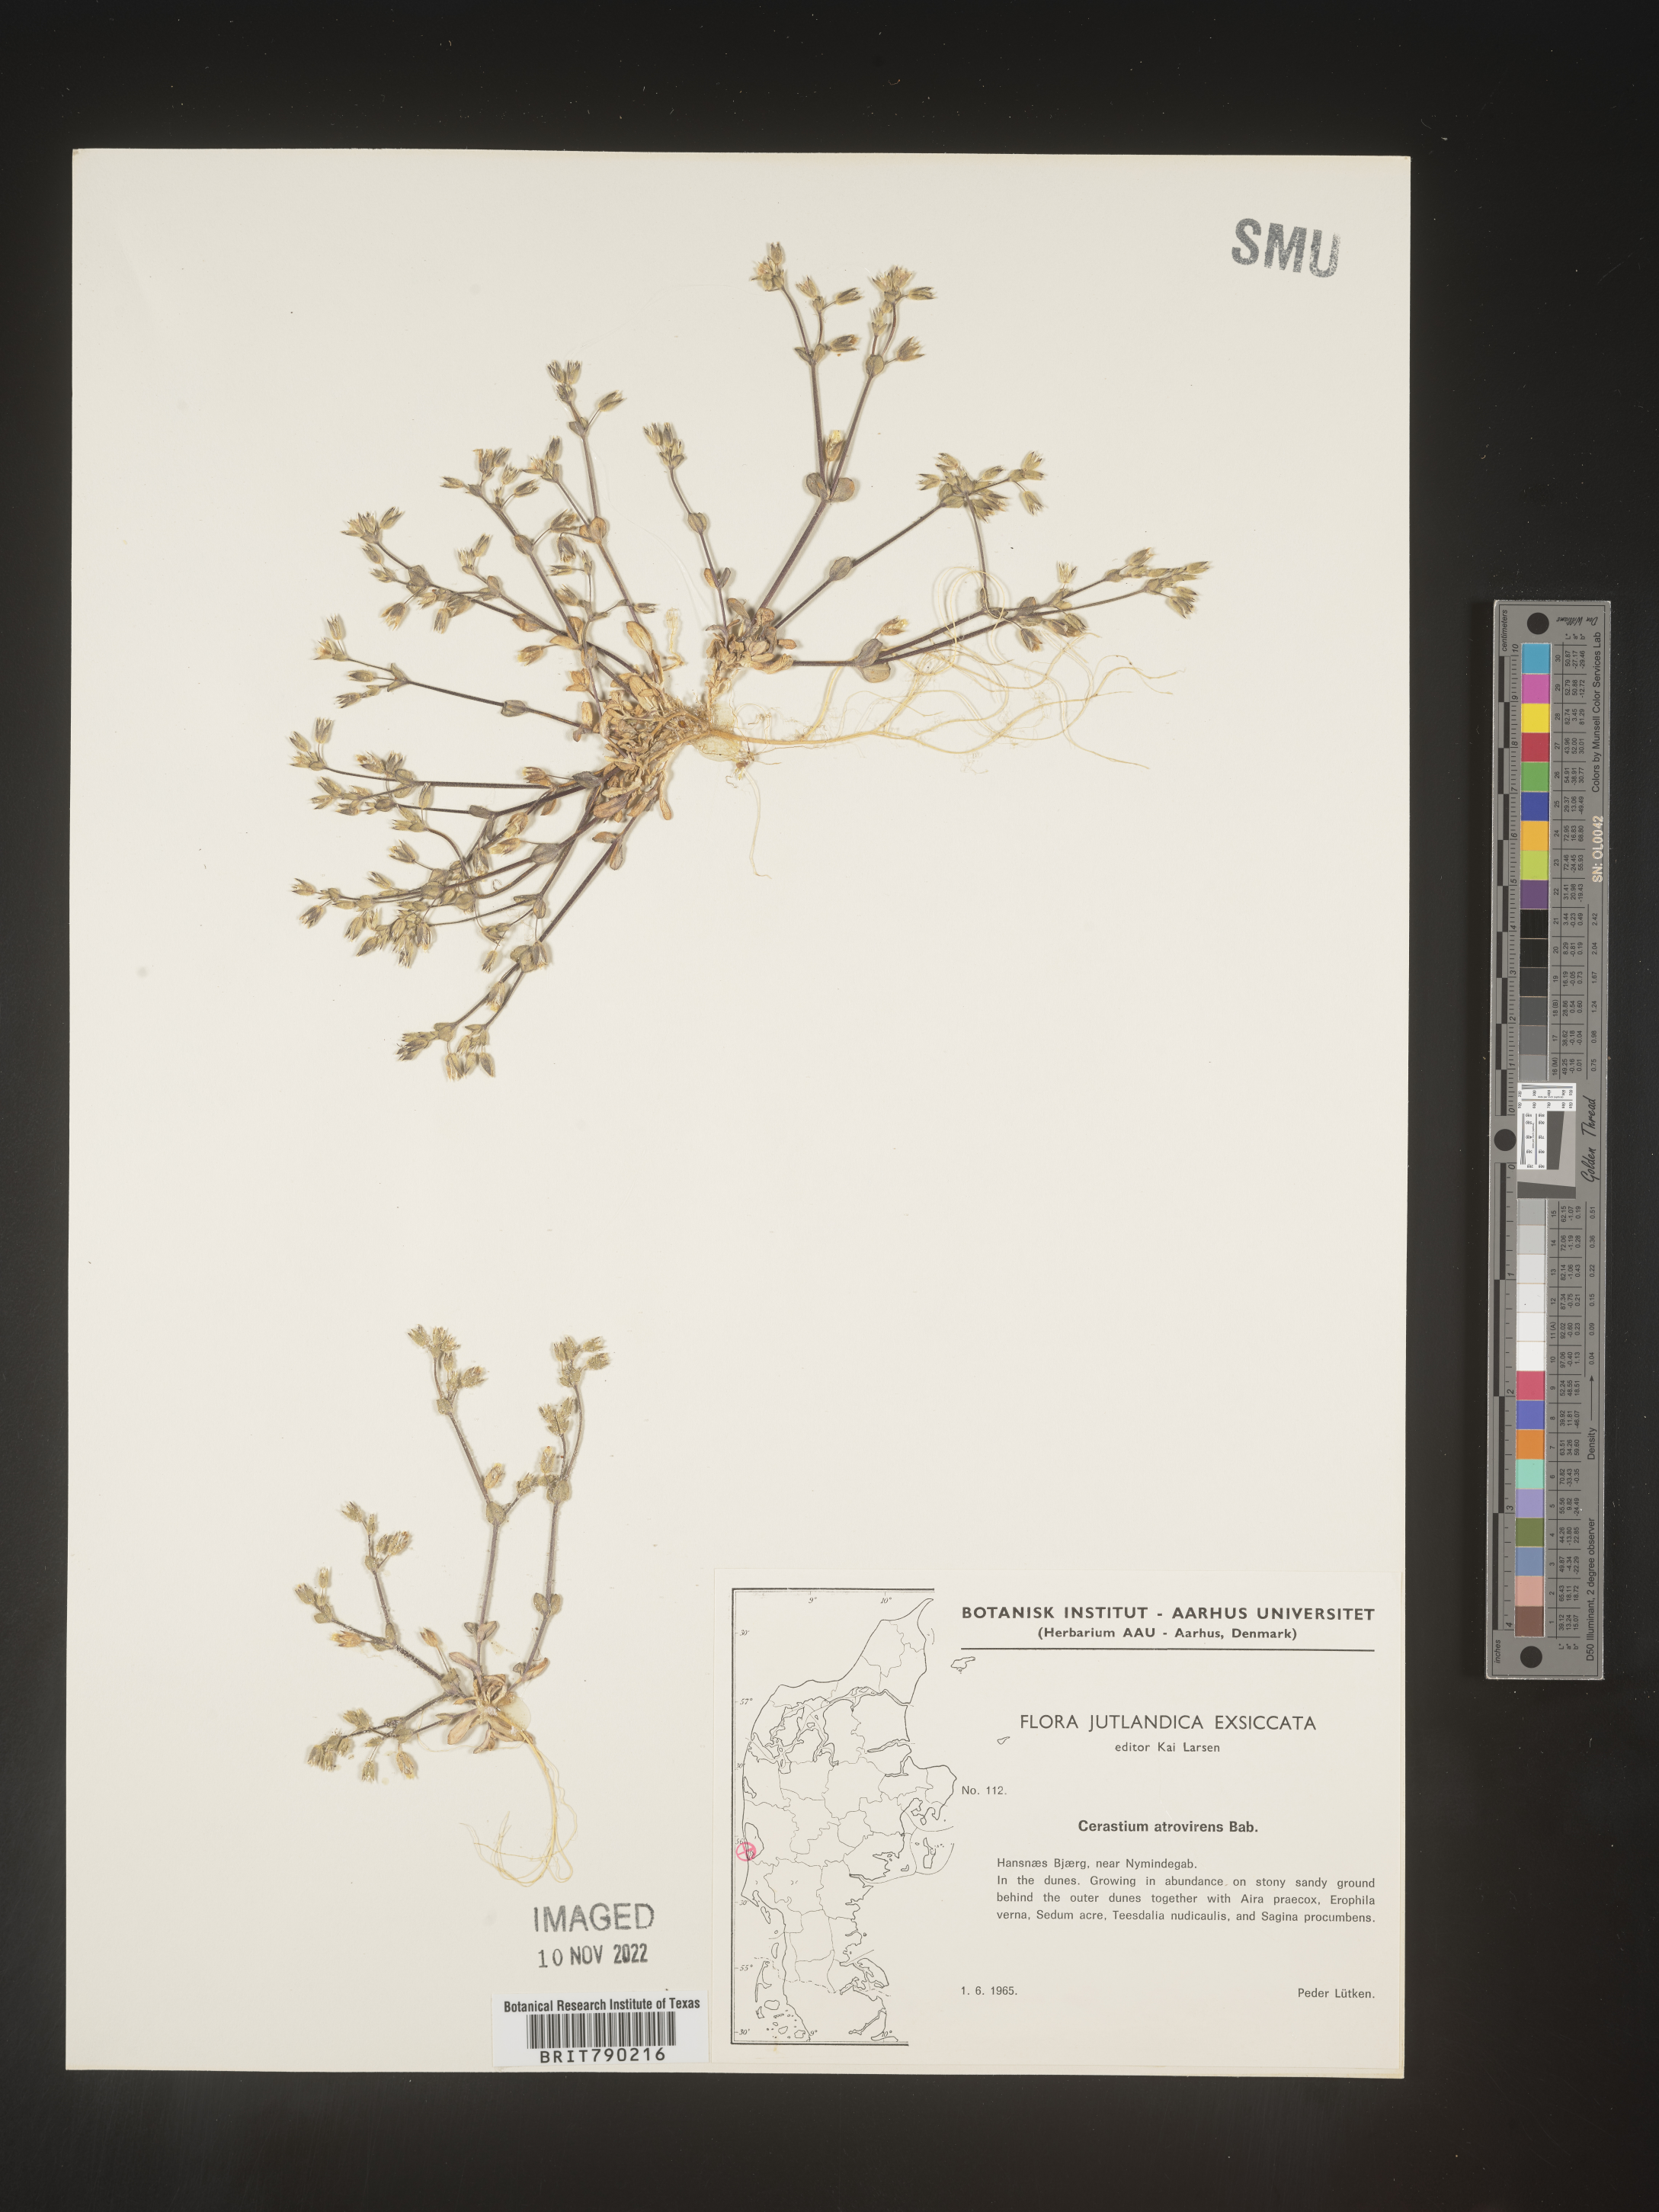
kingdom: Plantae
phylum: Tracheophyta
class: Magnoliopsida
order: Caryophyllales
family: Caryophyllaceae
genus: Cerastium
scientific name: Cerastium
